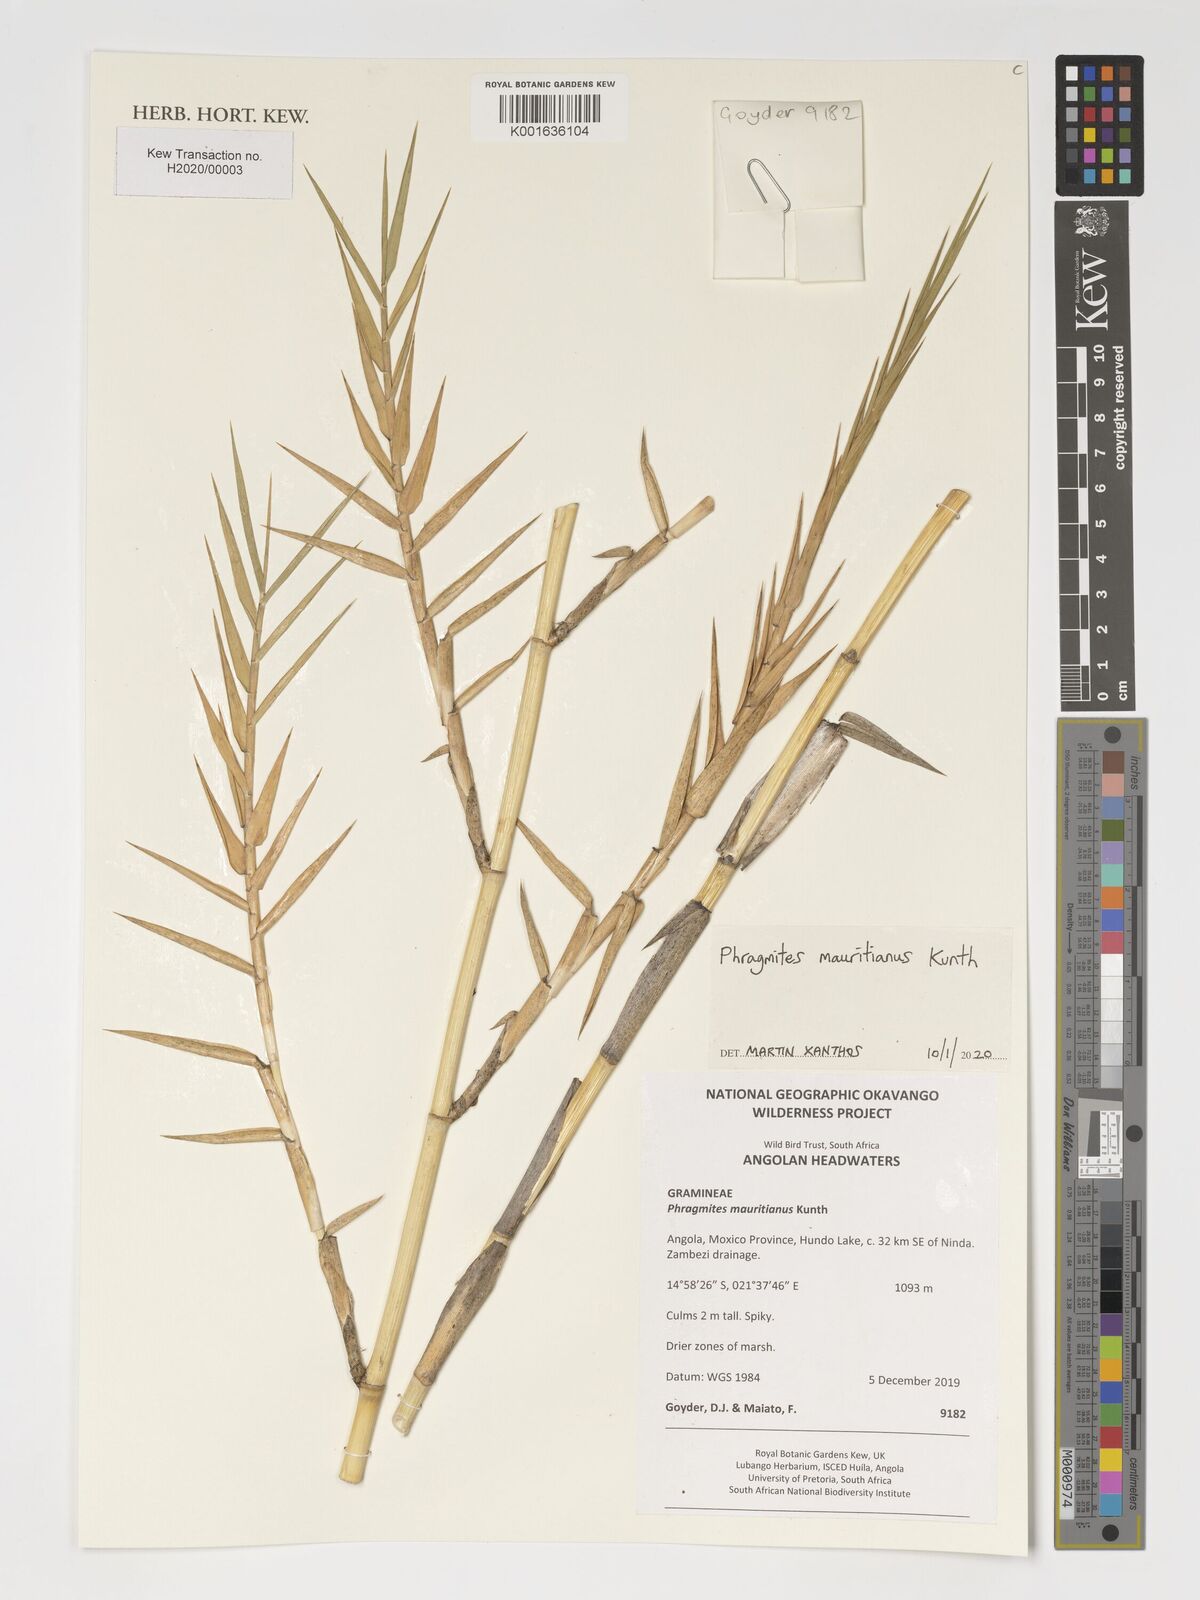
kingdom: Plantae
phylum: Tracheophyta
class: Liliopsida
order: Poales
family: Poaceae
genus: Phragmites
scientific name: Phragmites mauritianus
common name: Reed grass
